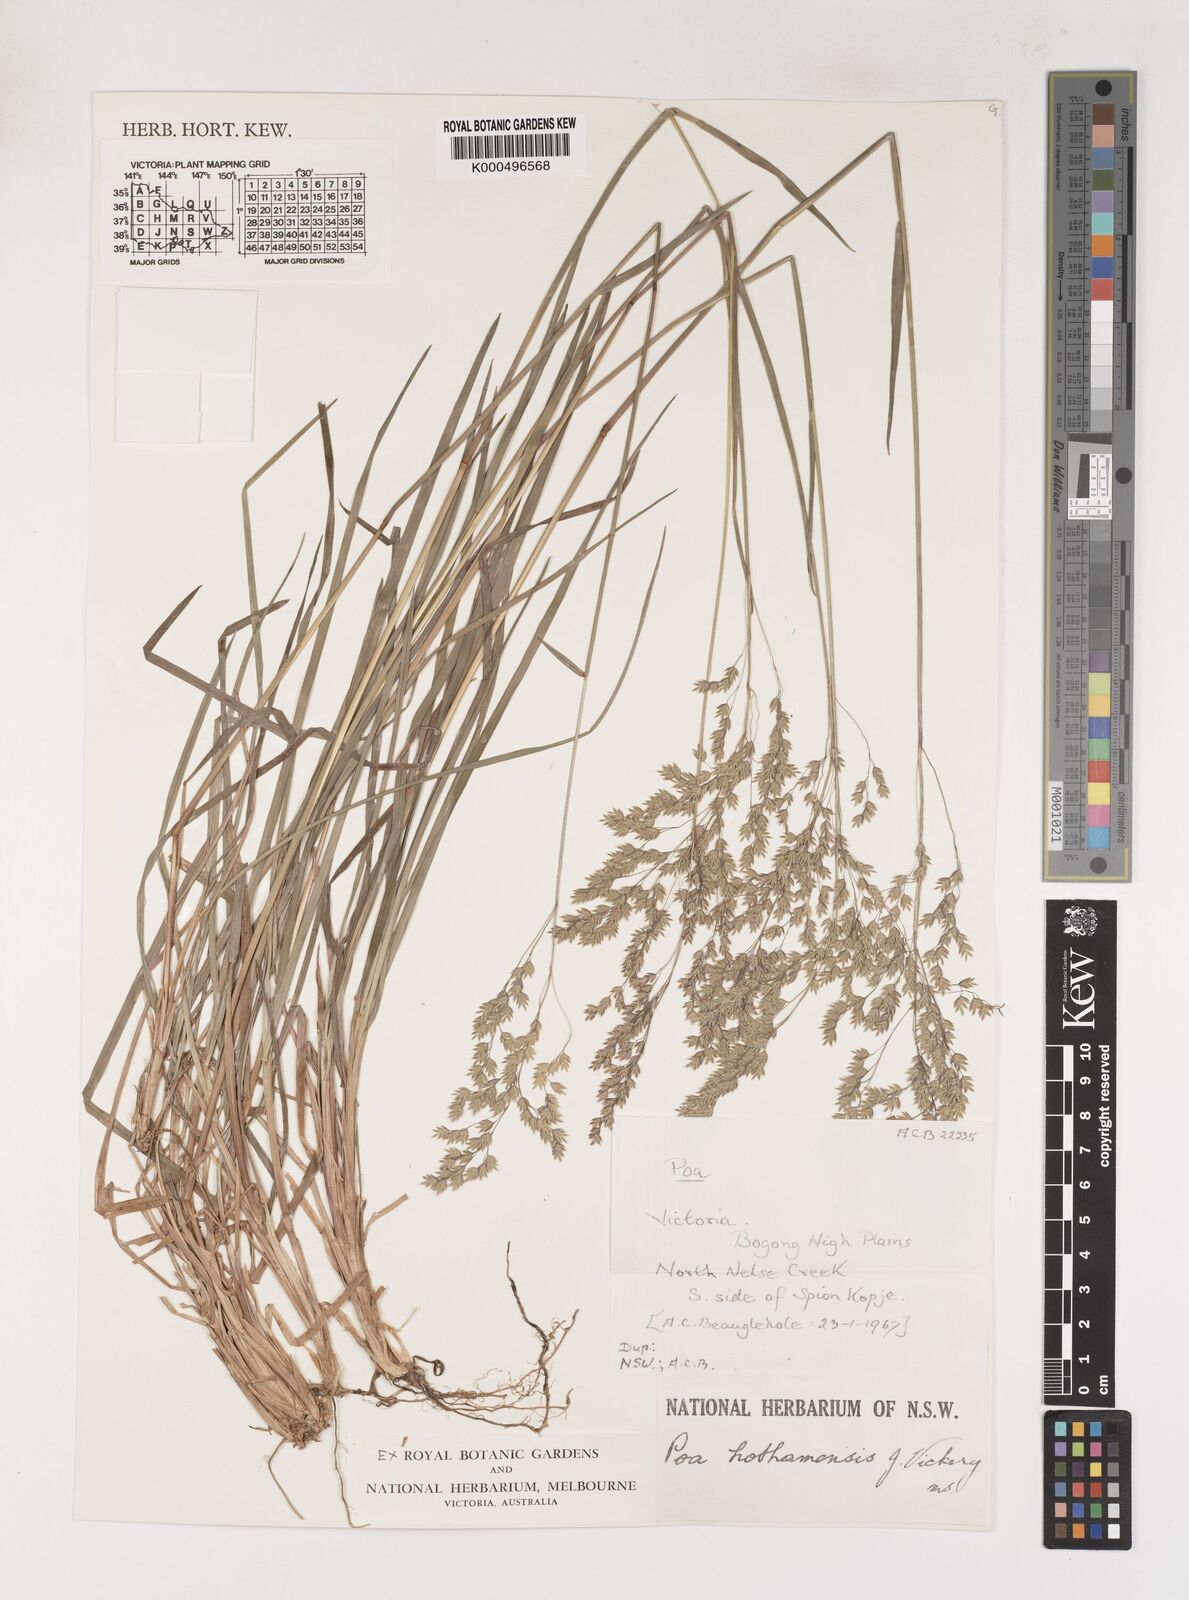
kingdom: Plantae
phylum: Tracheophyta
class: Liliopsida
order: Poales
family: Poaceae
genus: Poa
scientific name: Poa hothamensis
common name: Ledge grass
